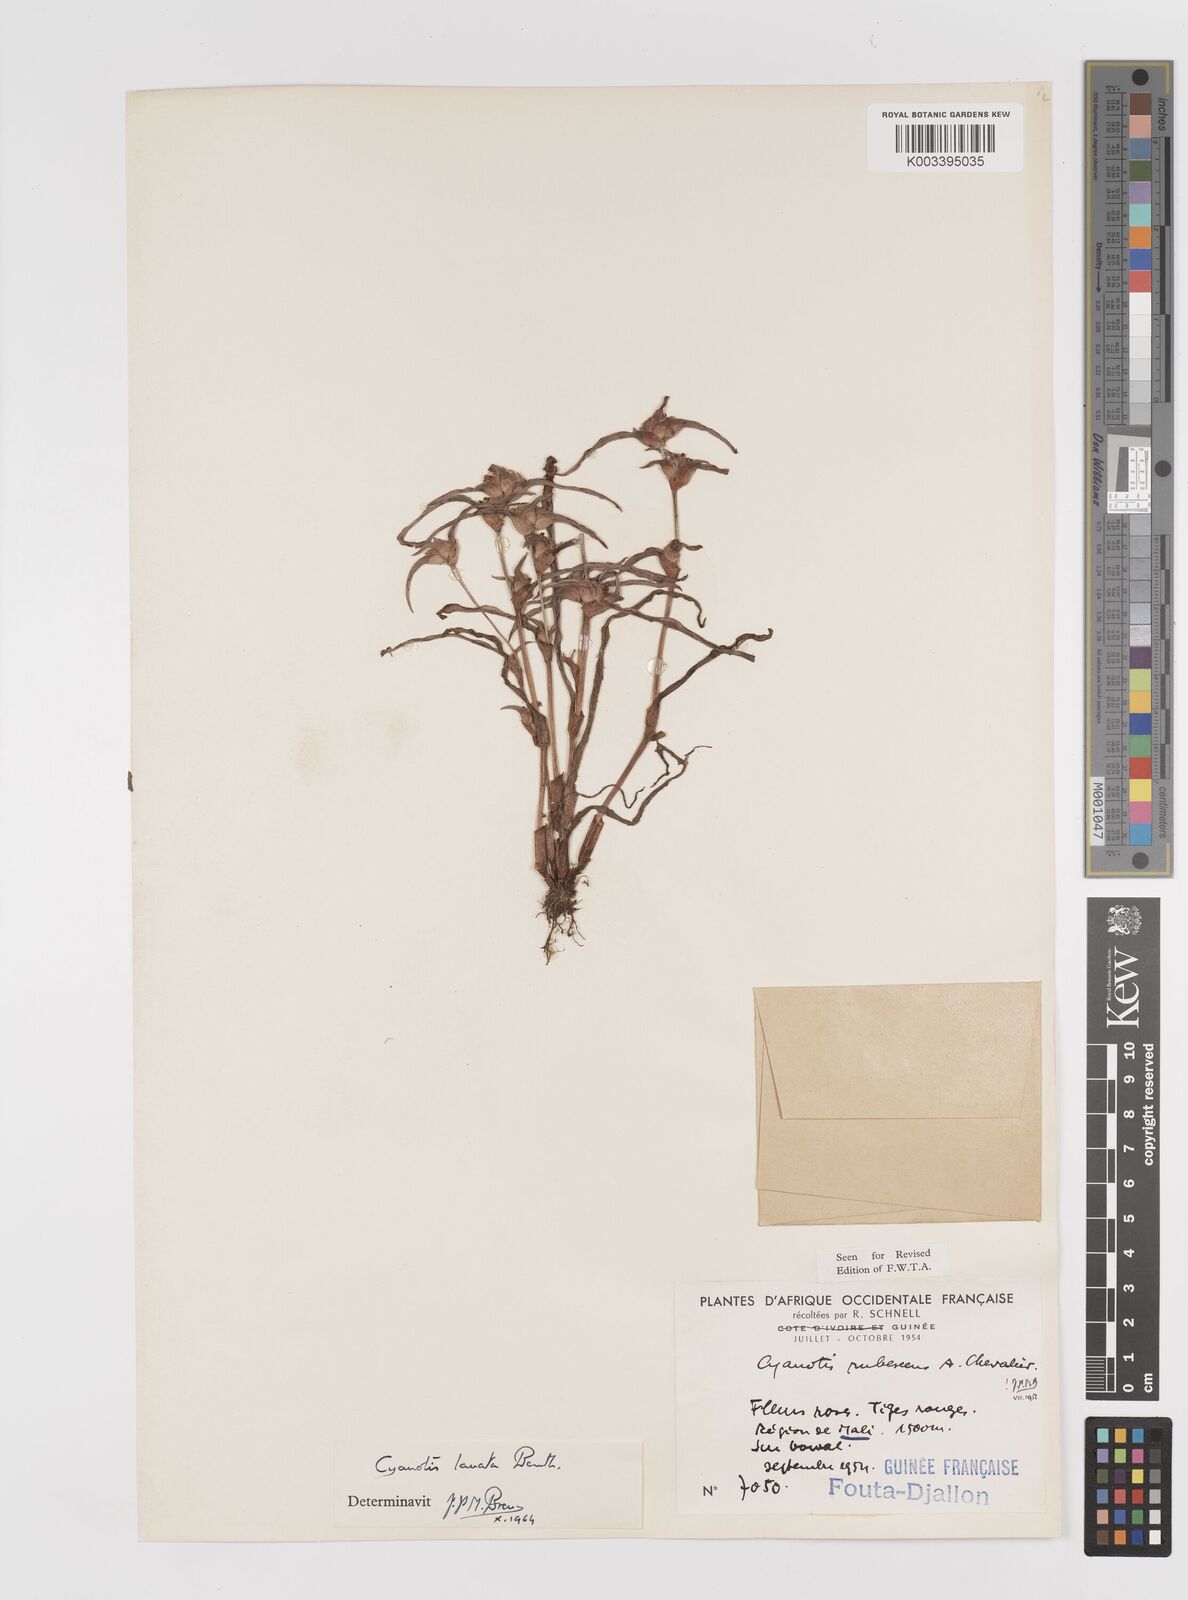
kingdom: Plantae
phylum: Tracheophyta
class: Liliopsida
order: Commelinales
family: Commelinaceae
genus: Cyanotis
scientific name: Cyanotis lanata
